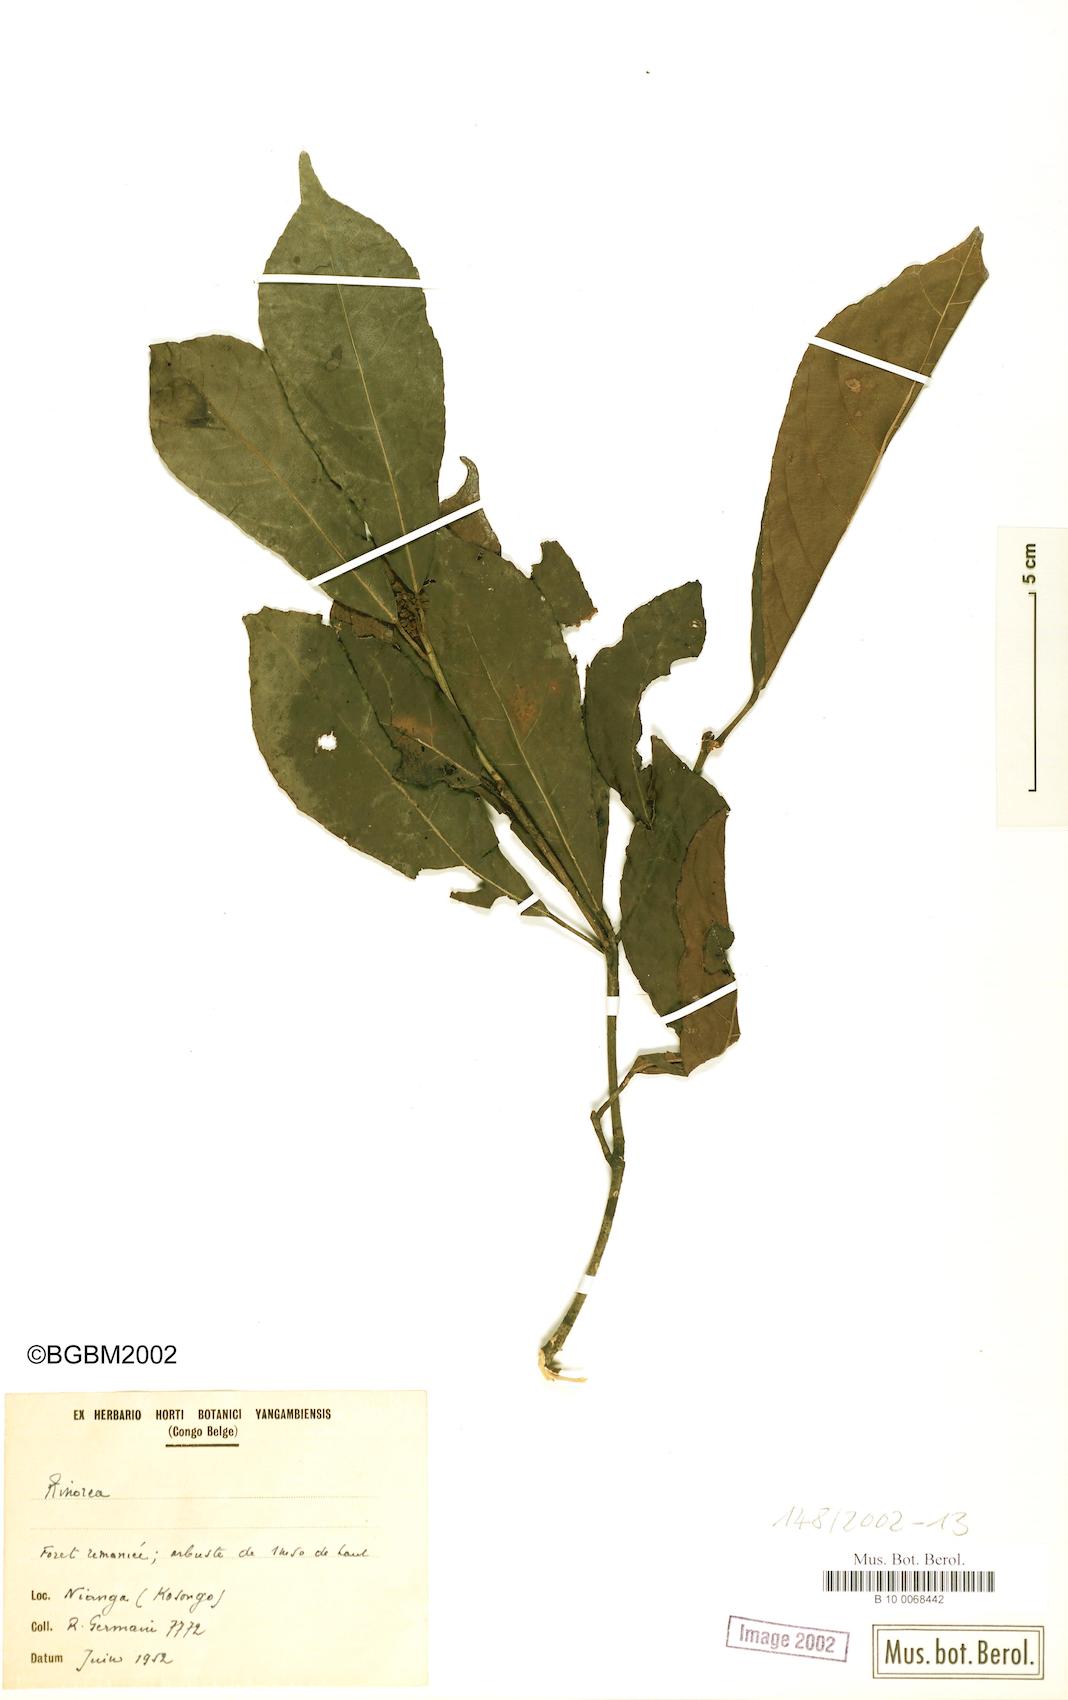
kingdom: Plantae
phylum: Tracheophyta
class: Magnoliopsida
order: Malpighiales
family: Violaceae
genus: Rinorea
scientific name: Rinorea
